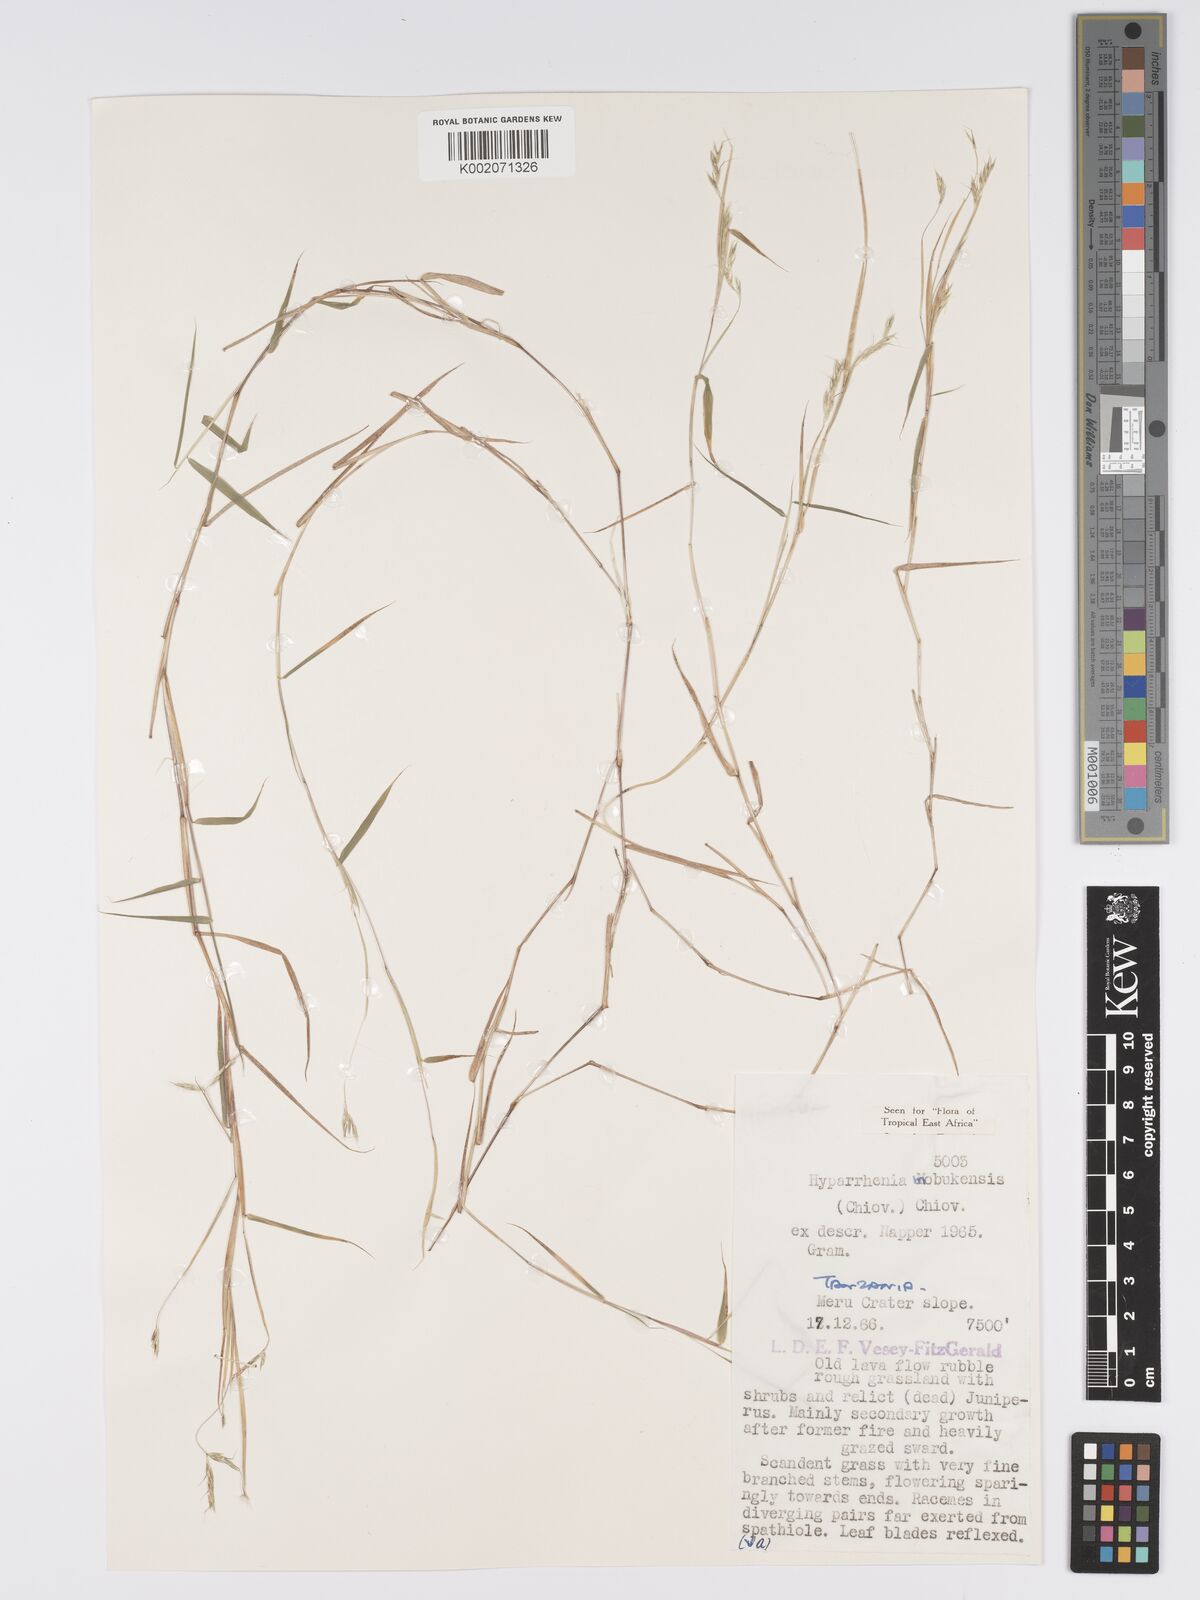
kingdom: Plantae
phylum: Tracheophyta
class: Liliopsida
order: Poales
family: Poaceae
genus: Hyparrhenia
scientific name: Hyparrhenia mobukensis
